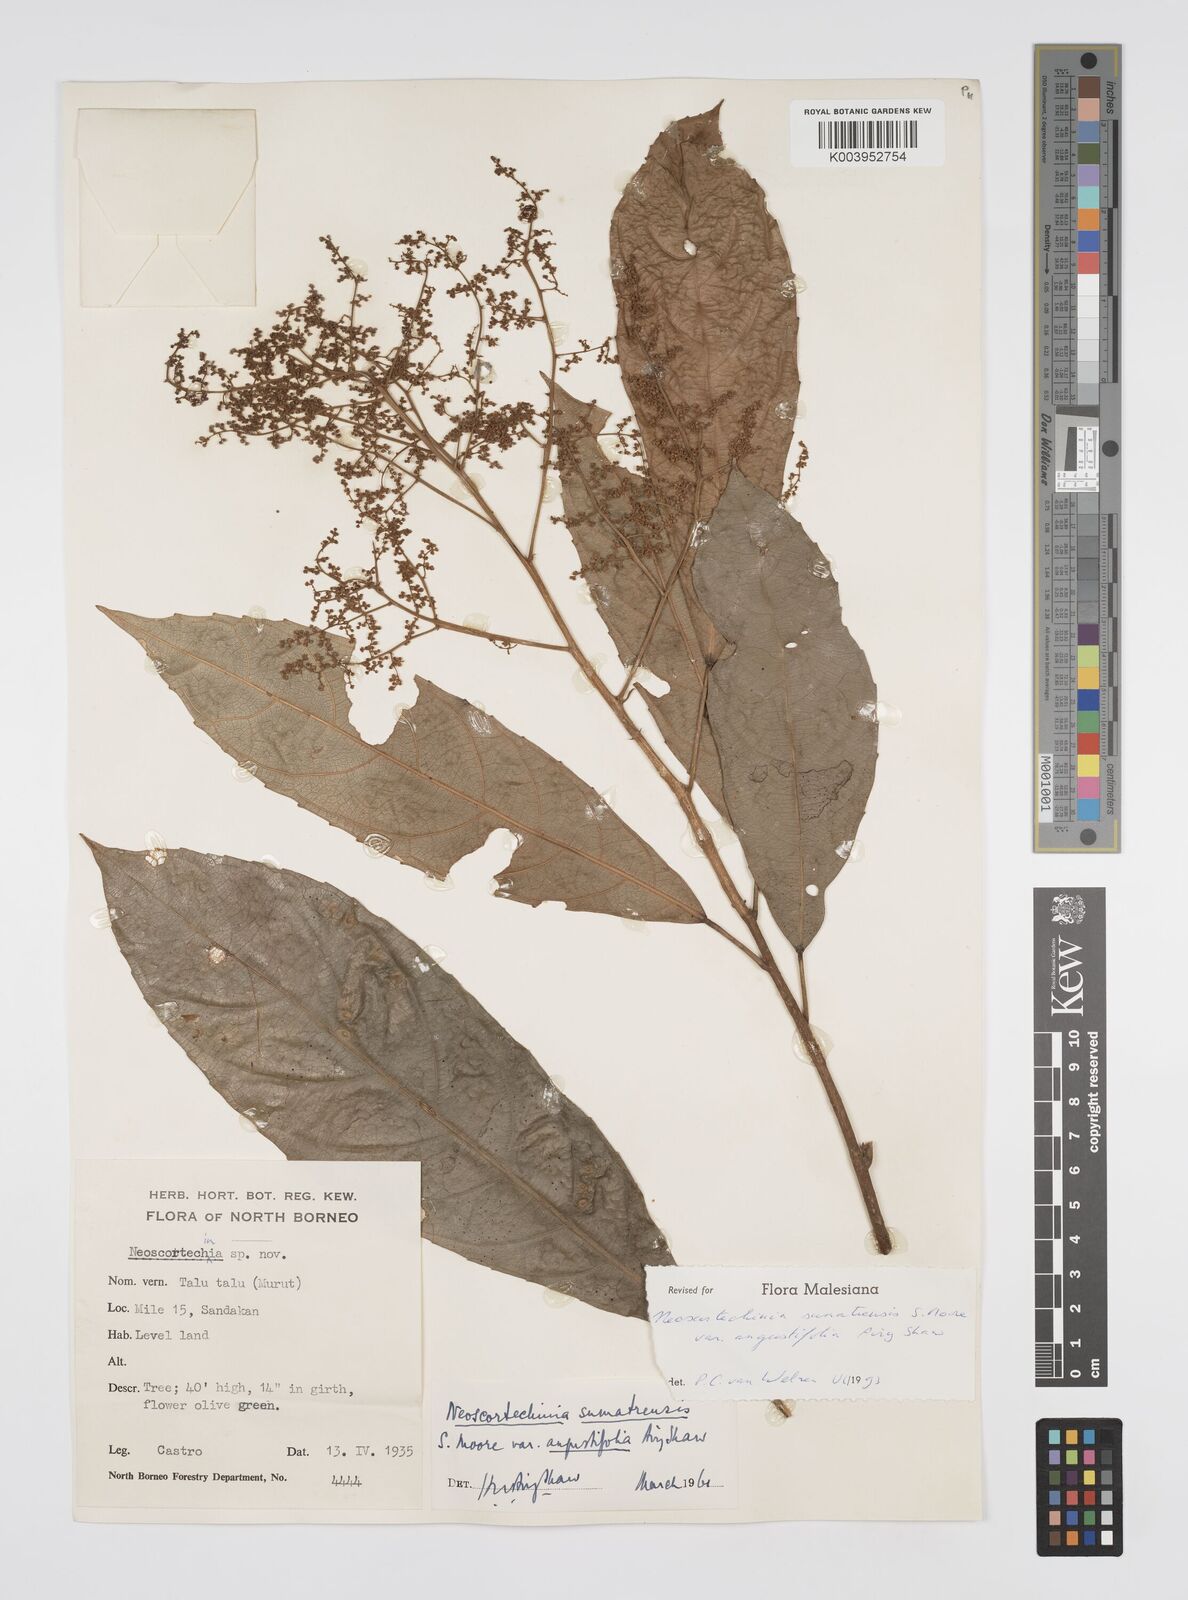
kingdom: Plantae
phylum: Tracheophyta
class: Magnoliopsida
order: Malpighiales
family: Euphorbiaceae
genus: Neoscortechinia
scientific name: Neoscortechinia angustifolia
